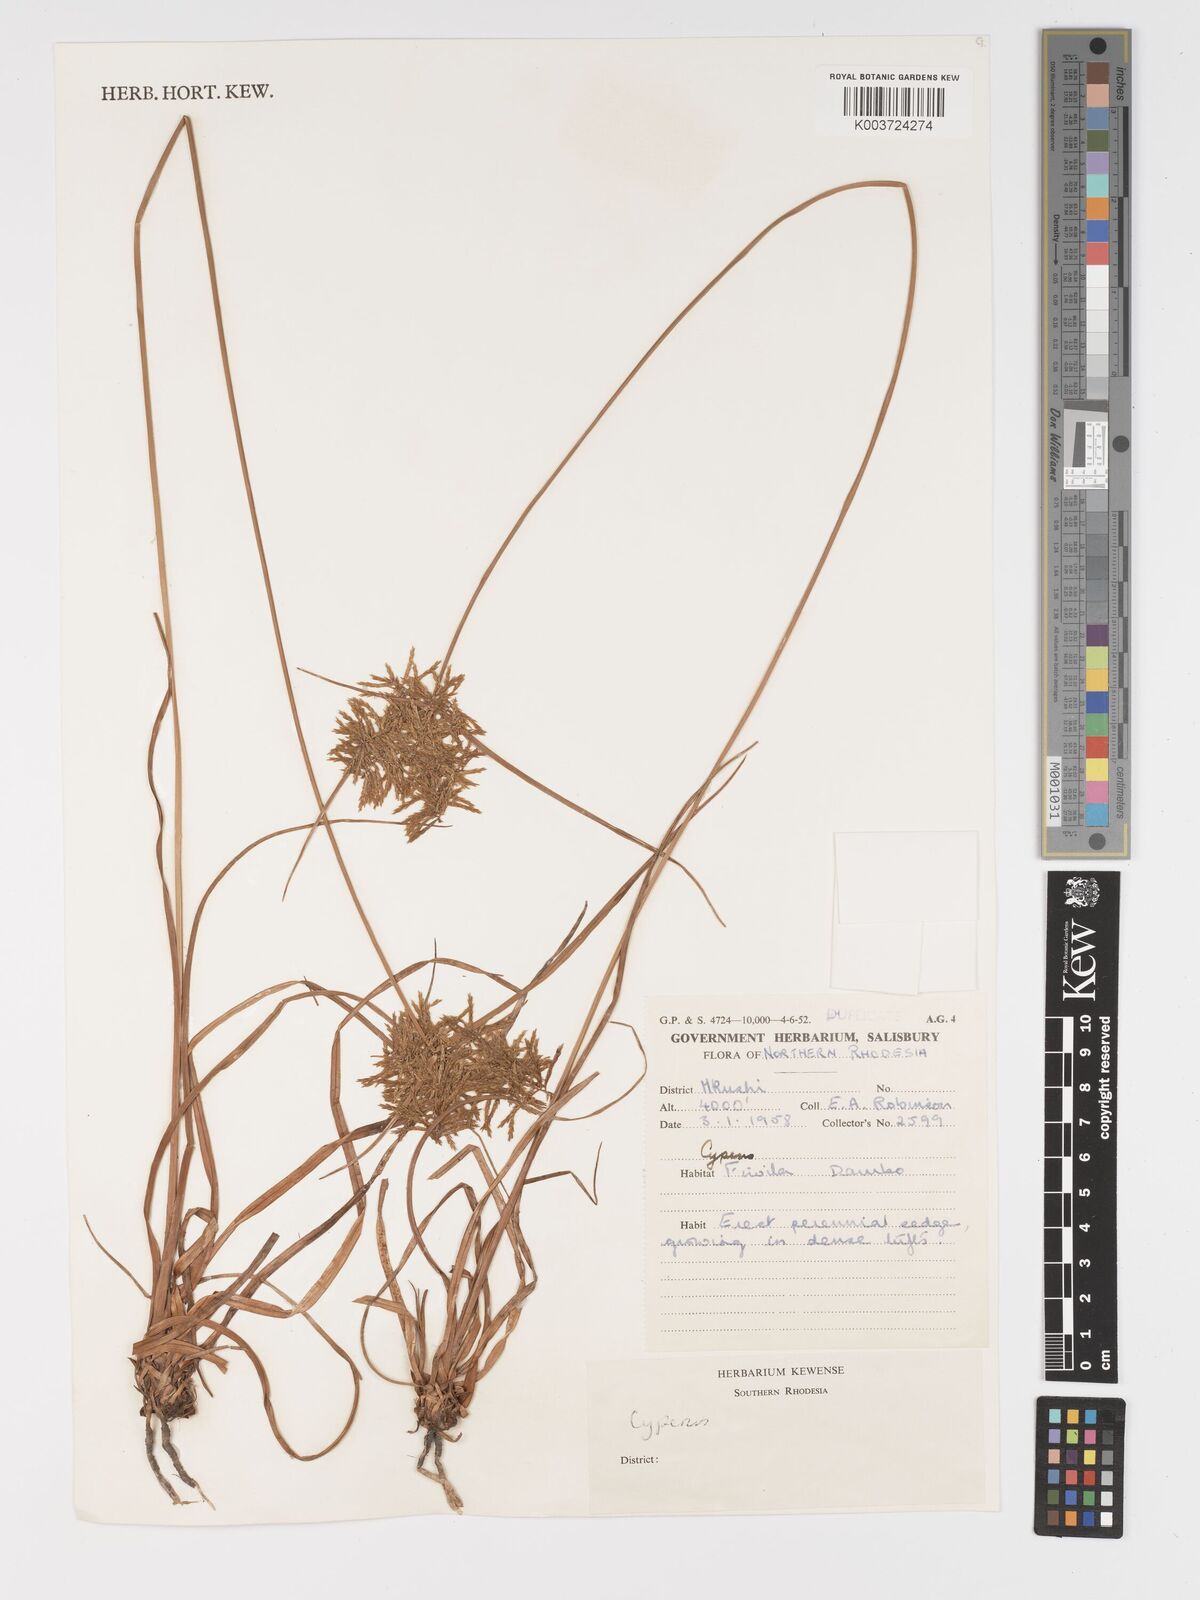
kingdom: Plantae
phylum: Tracheophyta
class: Liliopsida
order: Poales
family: Cyperaceae
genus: Cyperus
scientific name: Cyperus
